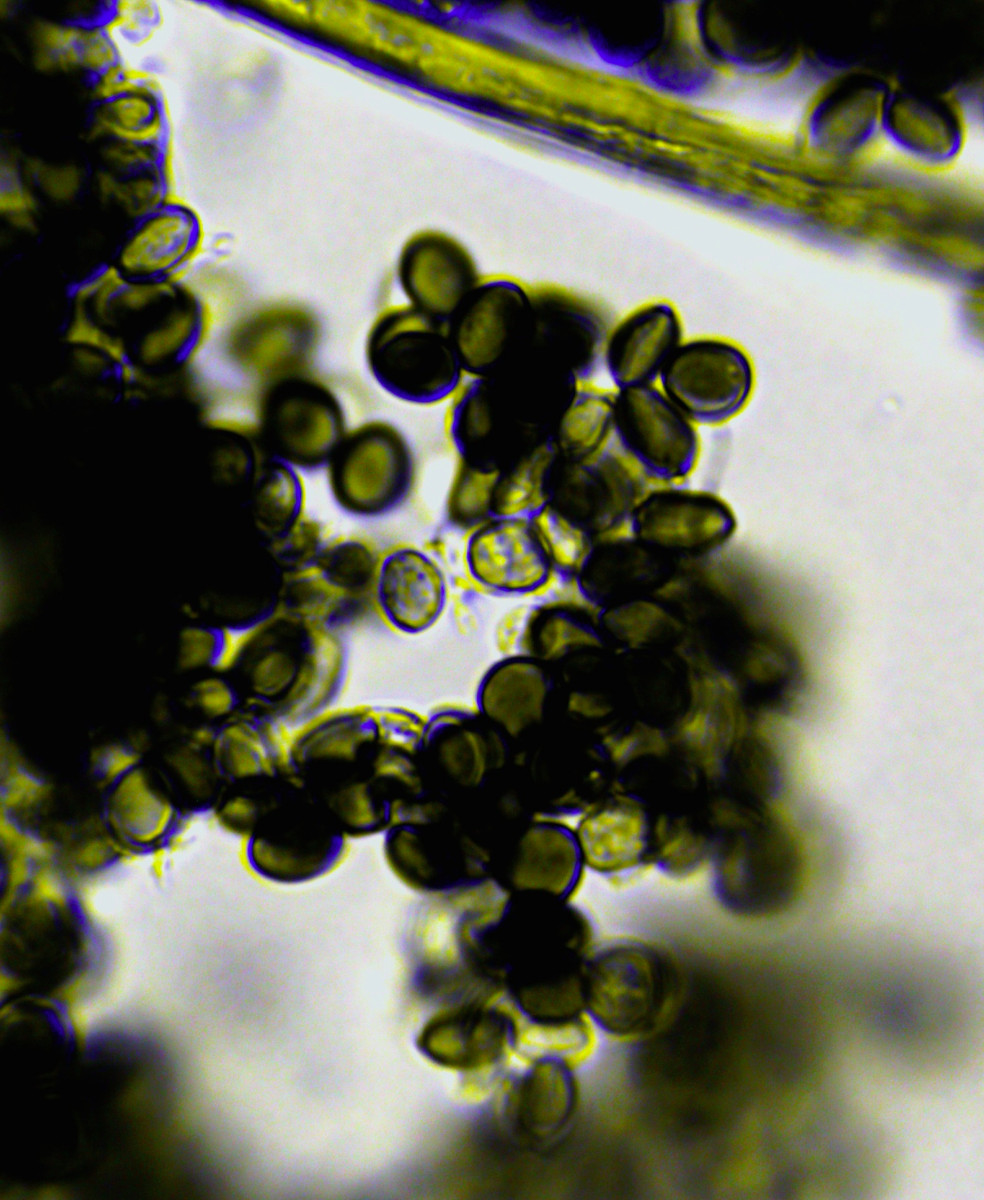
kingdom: Fungi
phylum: Ascomycota
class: Sordariomycetes
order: Xylariales
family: Apiosporaceae
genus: Apiospora
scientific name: Apiospora arundinis
